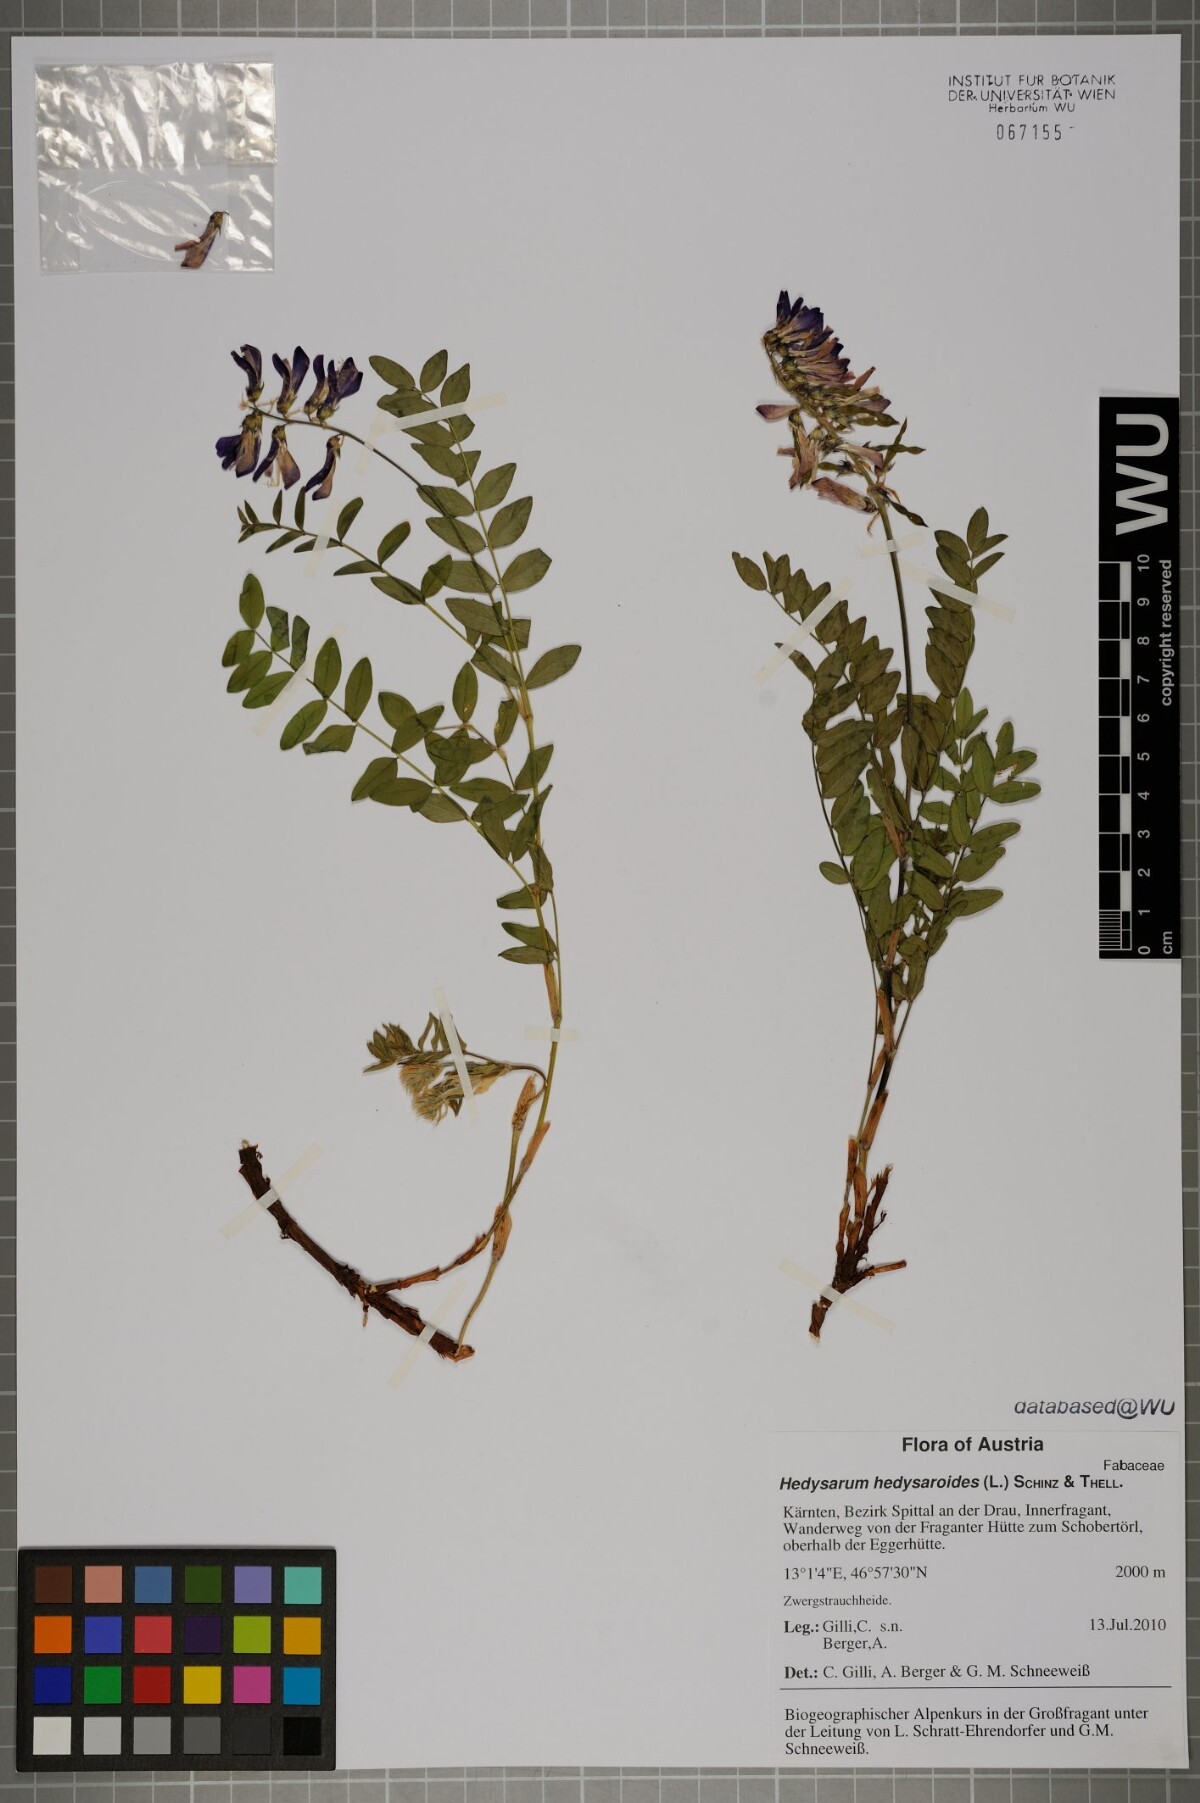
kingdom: Plantae
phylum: Tracheophyta
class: Magnoliopsida
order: Fabales
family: Fabaceae
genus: Hedysarum
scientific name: Hedysarum hedysaroides
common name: Alpine french-honeysuckle
